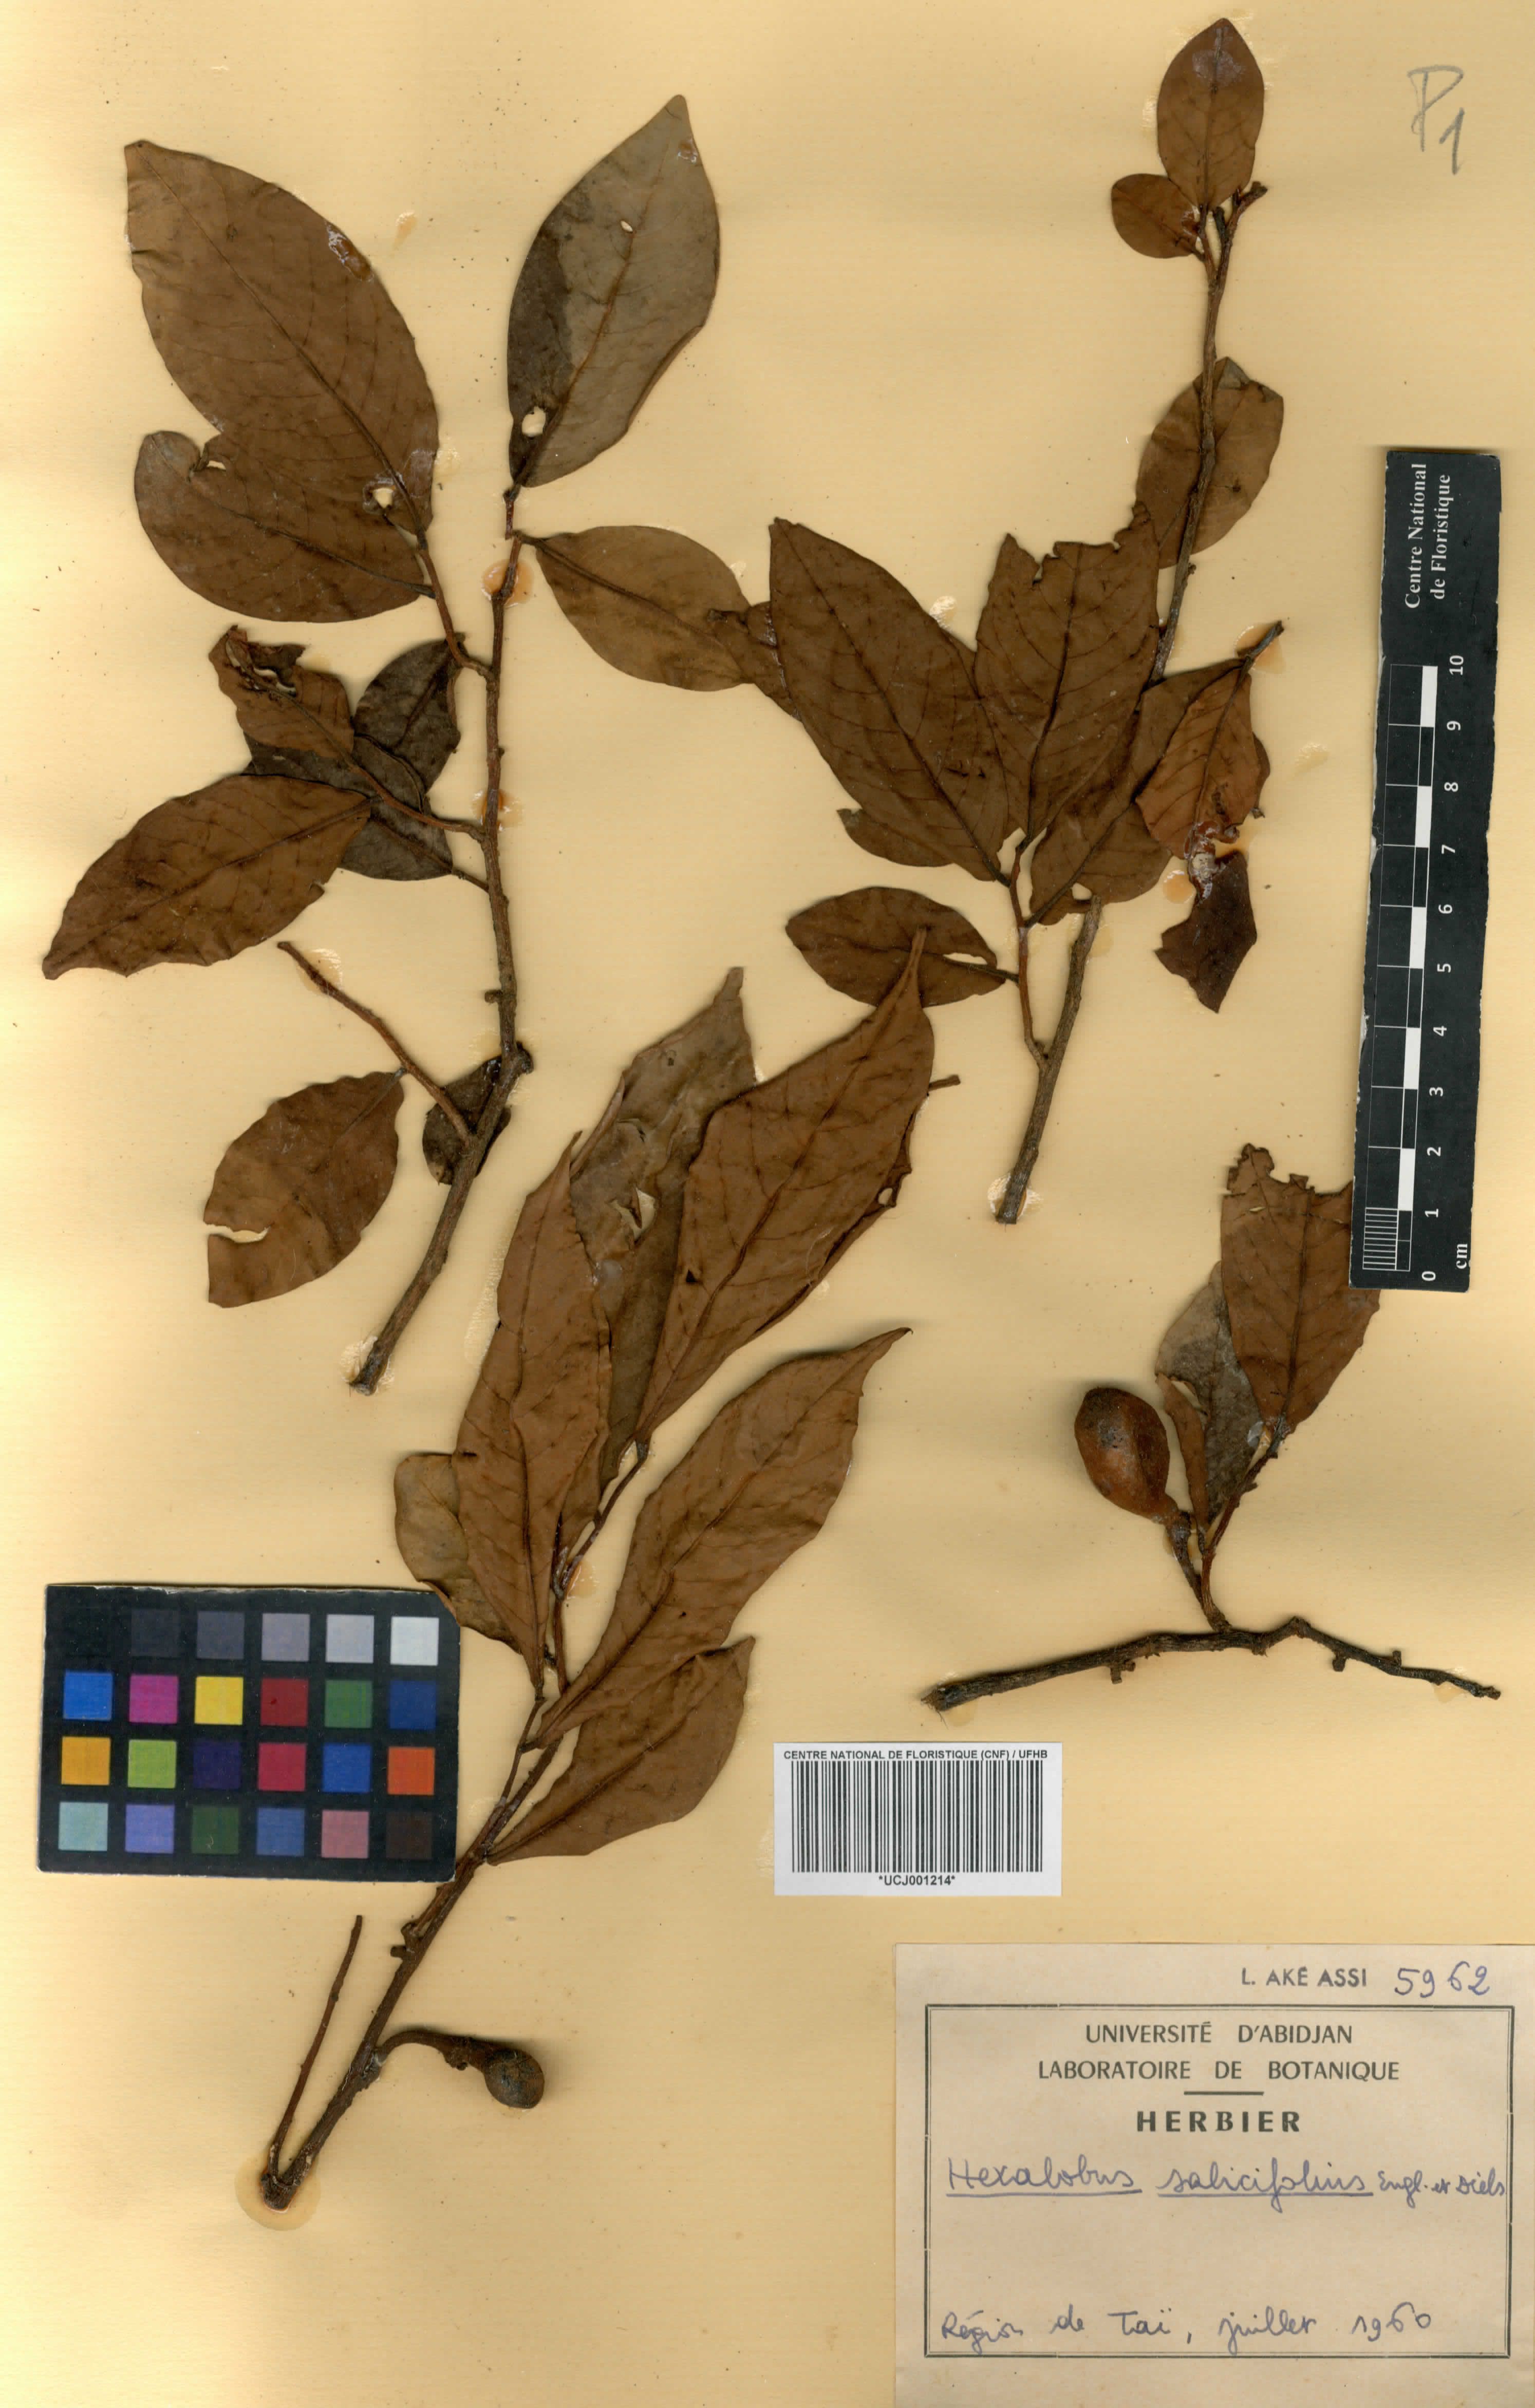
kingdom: Plantae
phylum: Tracheophyta
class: Magnoliopsida
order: Magnoliales
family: Annonaceae
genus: Hexalobus
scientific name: Hexalobus salicifolius
